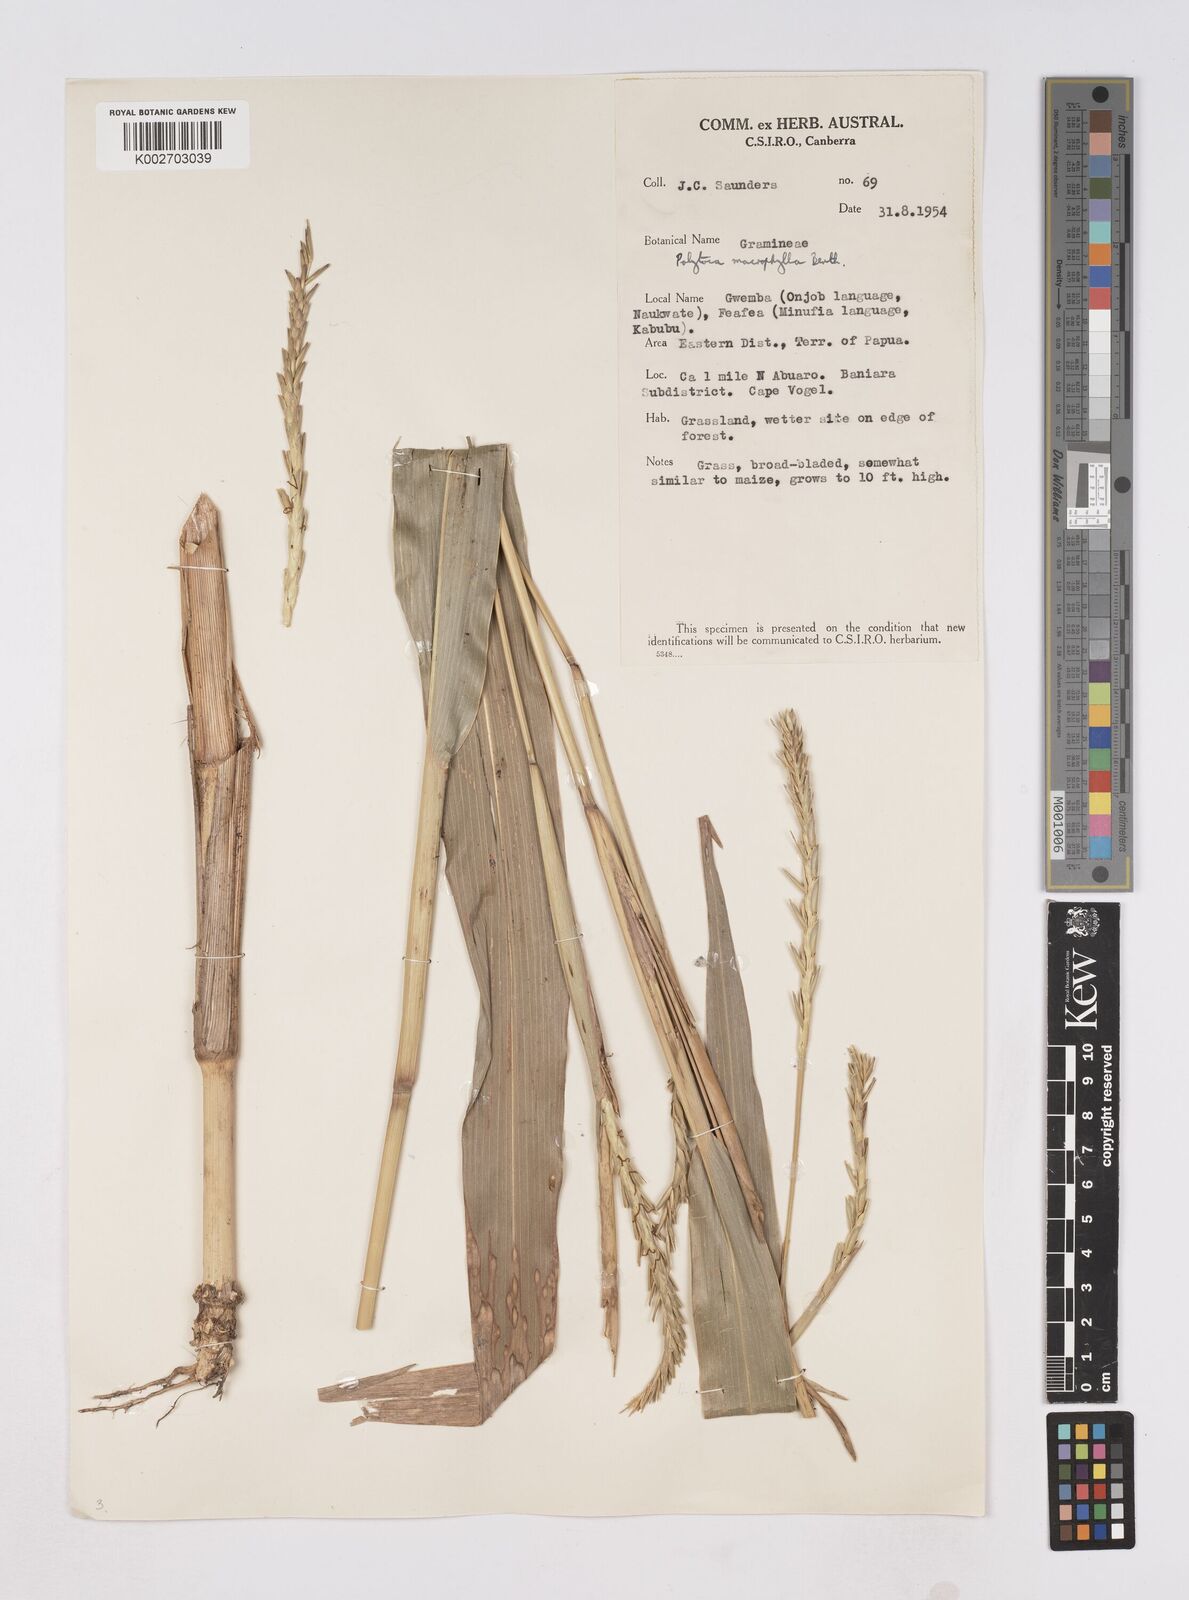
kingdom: Plantae
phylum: Tracheophyta
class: Liliopsida
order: Poales
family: Poaceae
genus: Polytoca
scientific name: Polytoca
